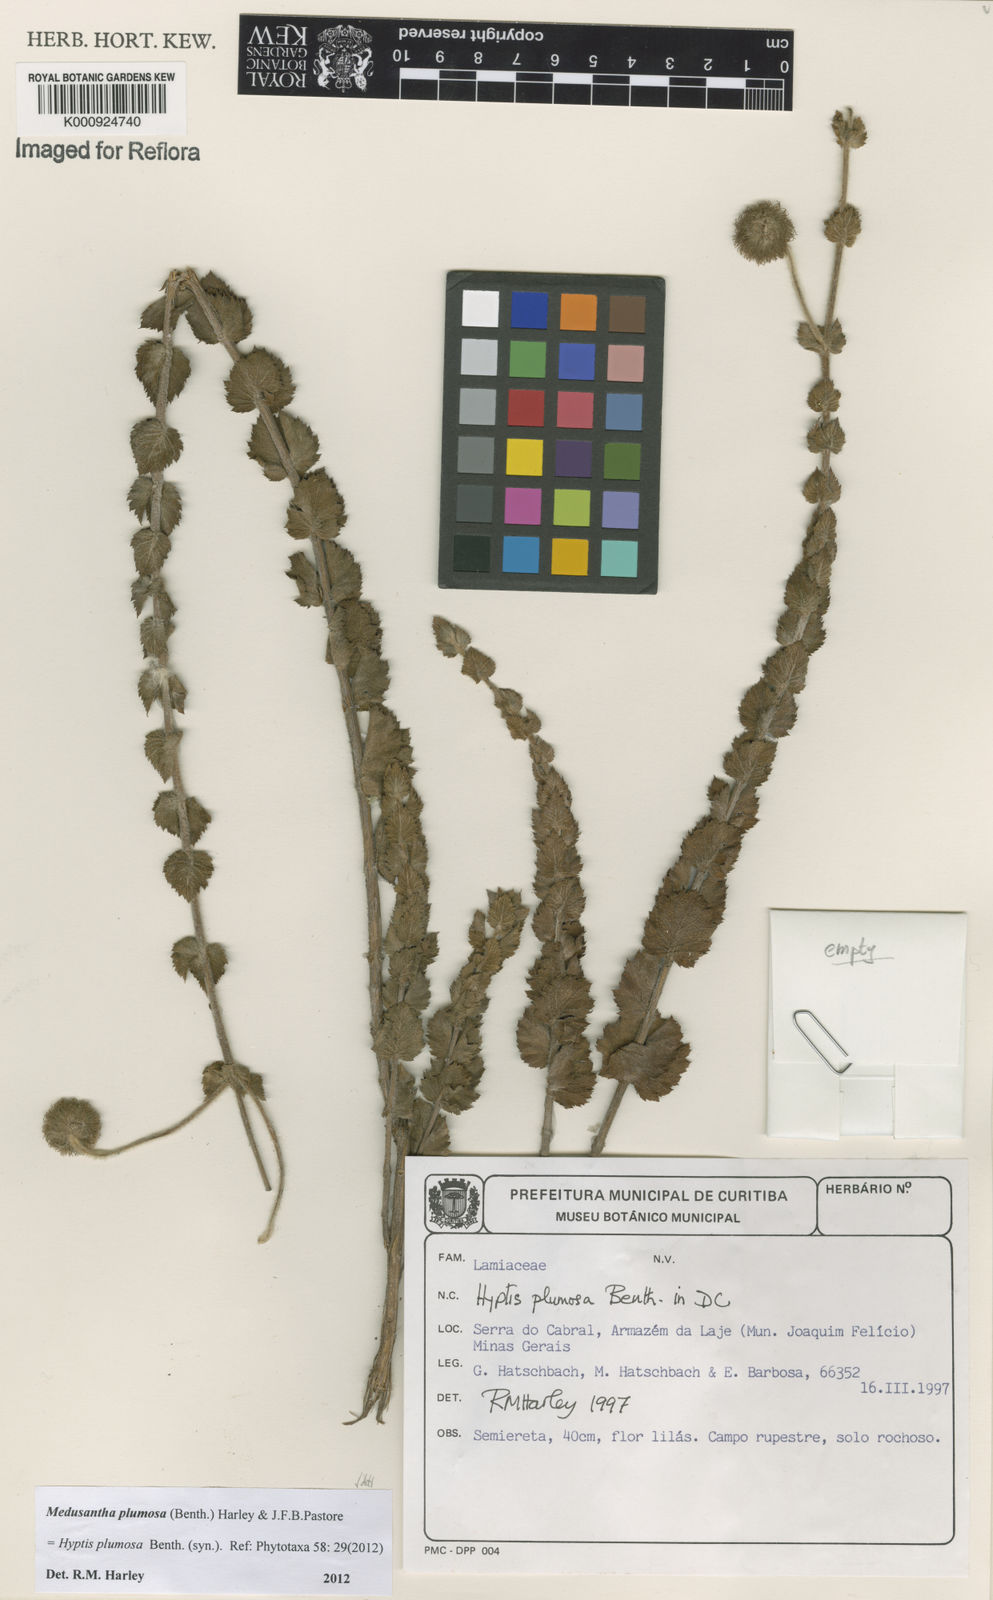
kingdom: Plantae
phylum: Tracheophyta
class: Magnoliopsida
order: Lamiales
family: Lamiaceae
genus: Medusantha
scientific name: Medusantha plumosa
